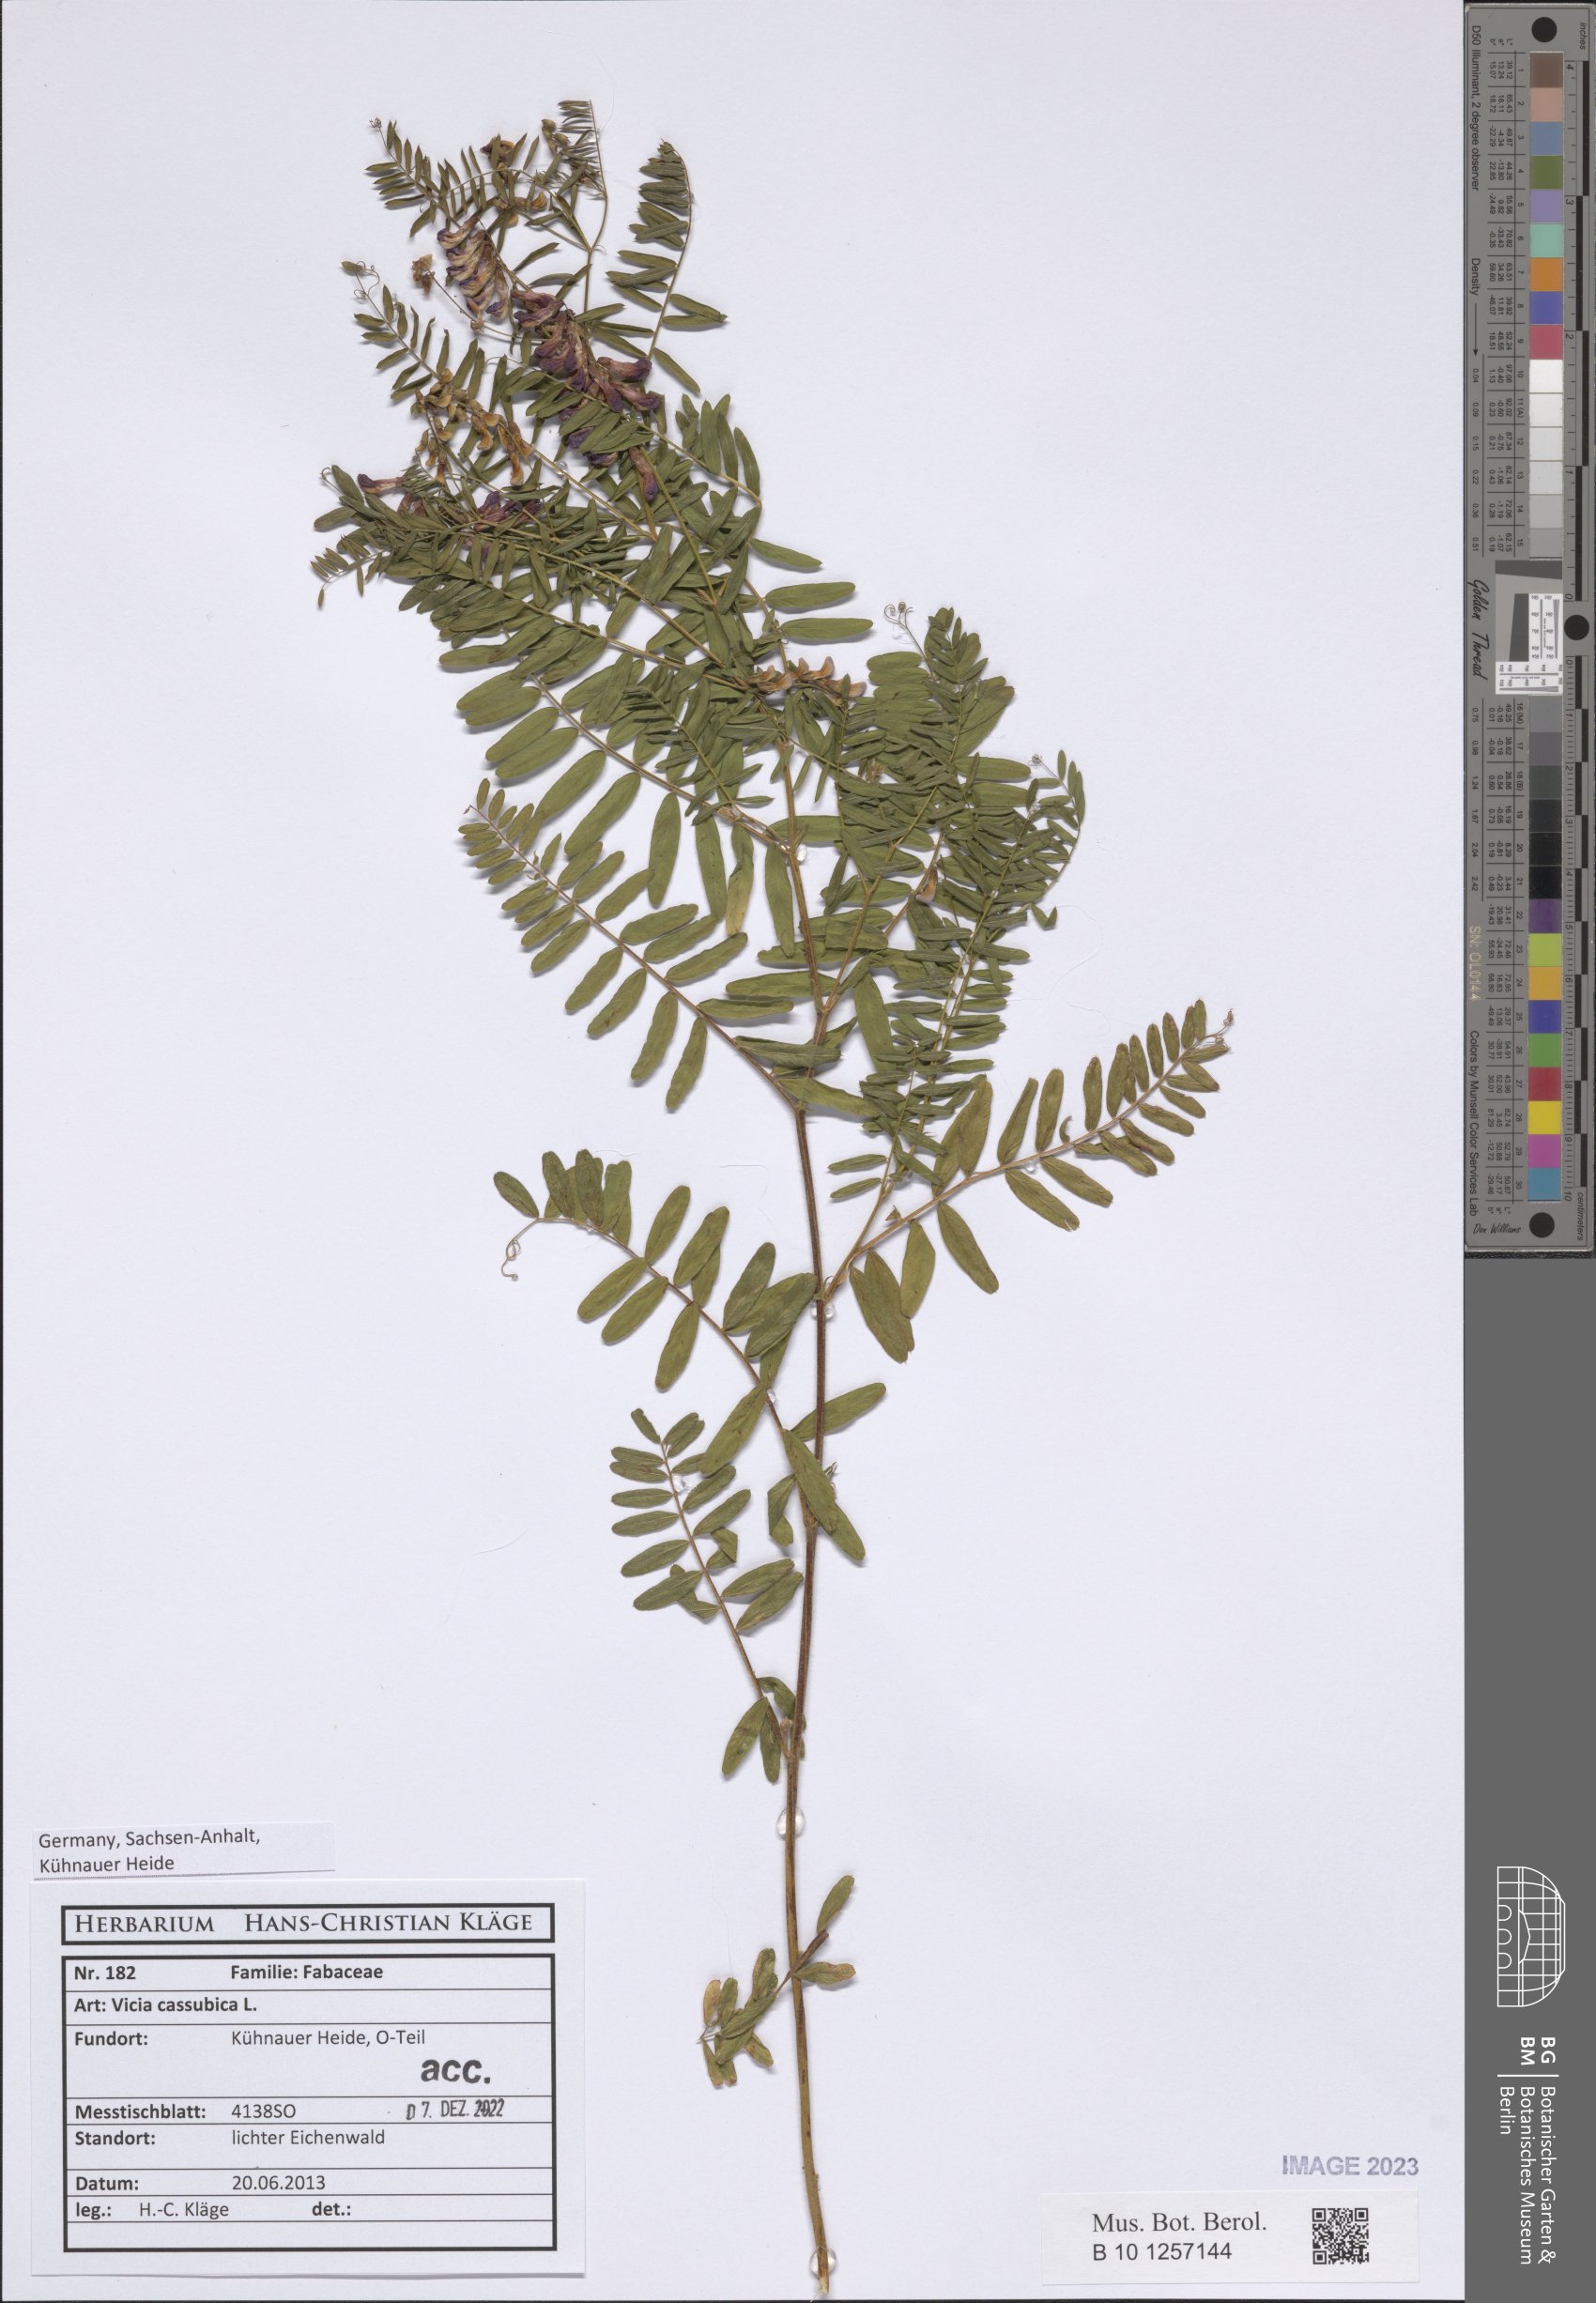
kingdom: Plantae
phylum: Tracheophyta
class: Magnoliopsida
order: Fabales
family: Fabaceae
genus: Vicia
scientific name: Vicia cassubica
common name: Danzig vetch
